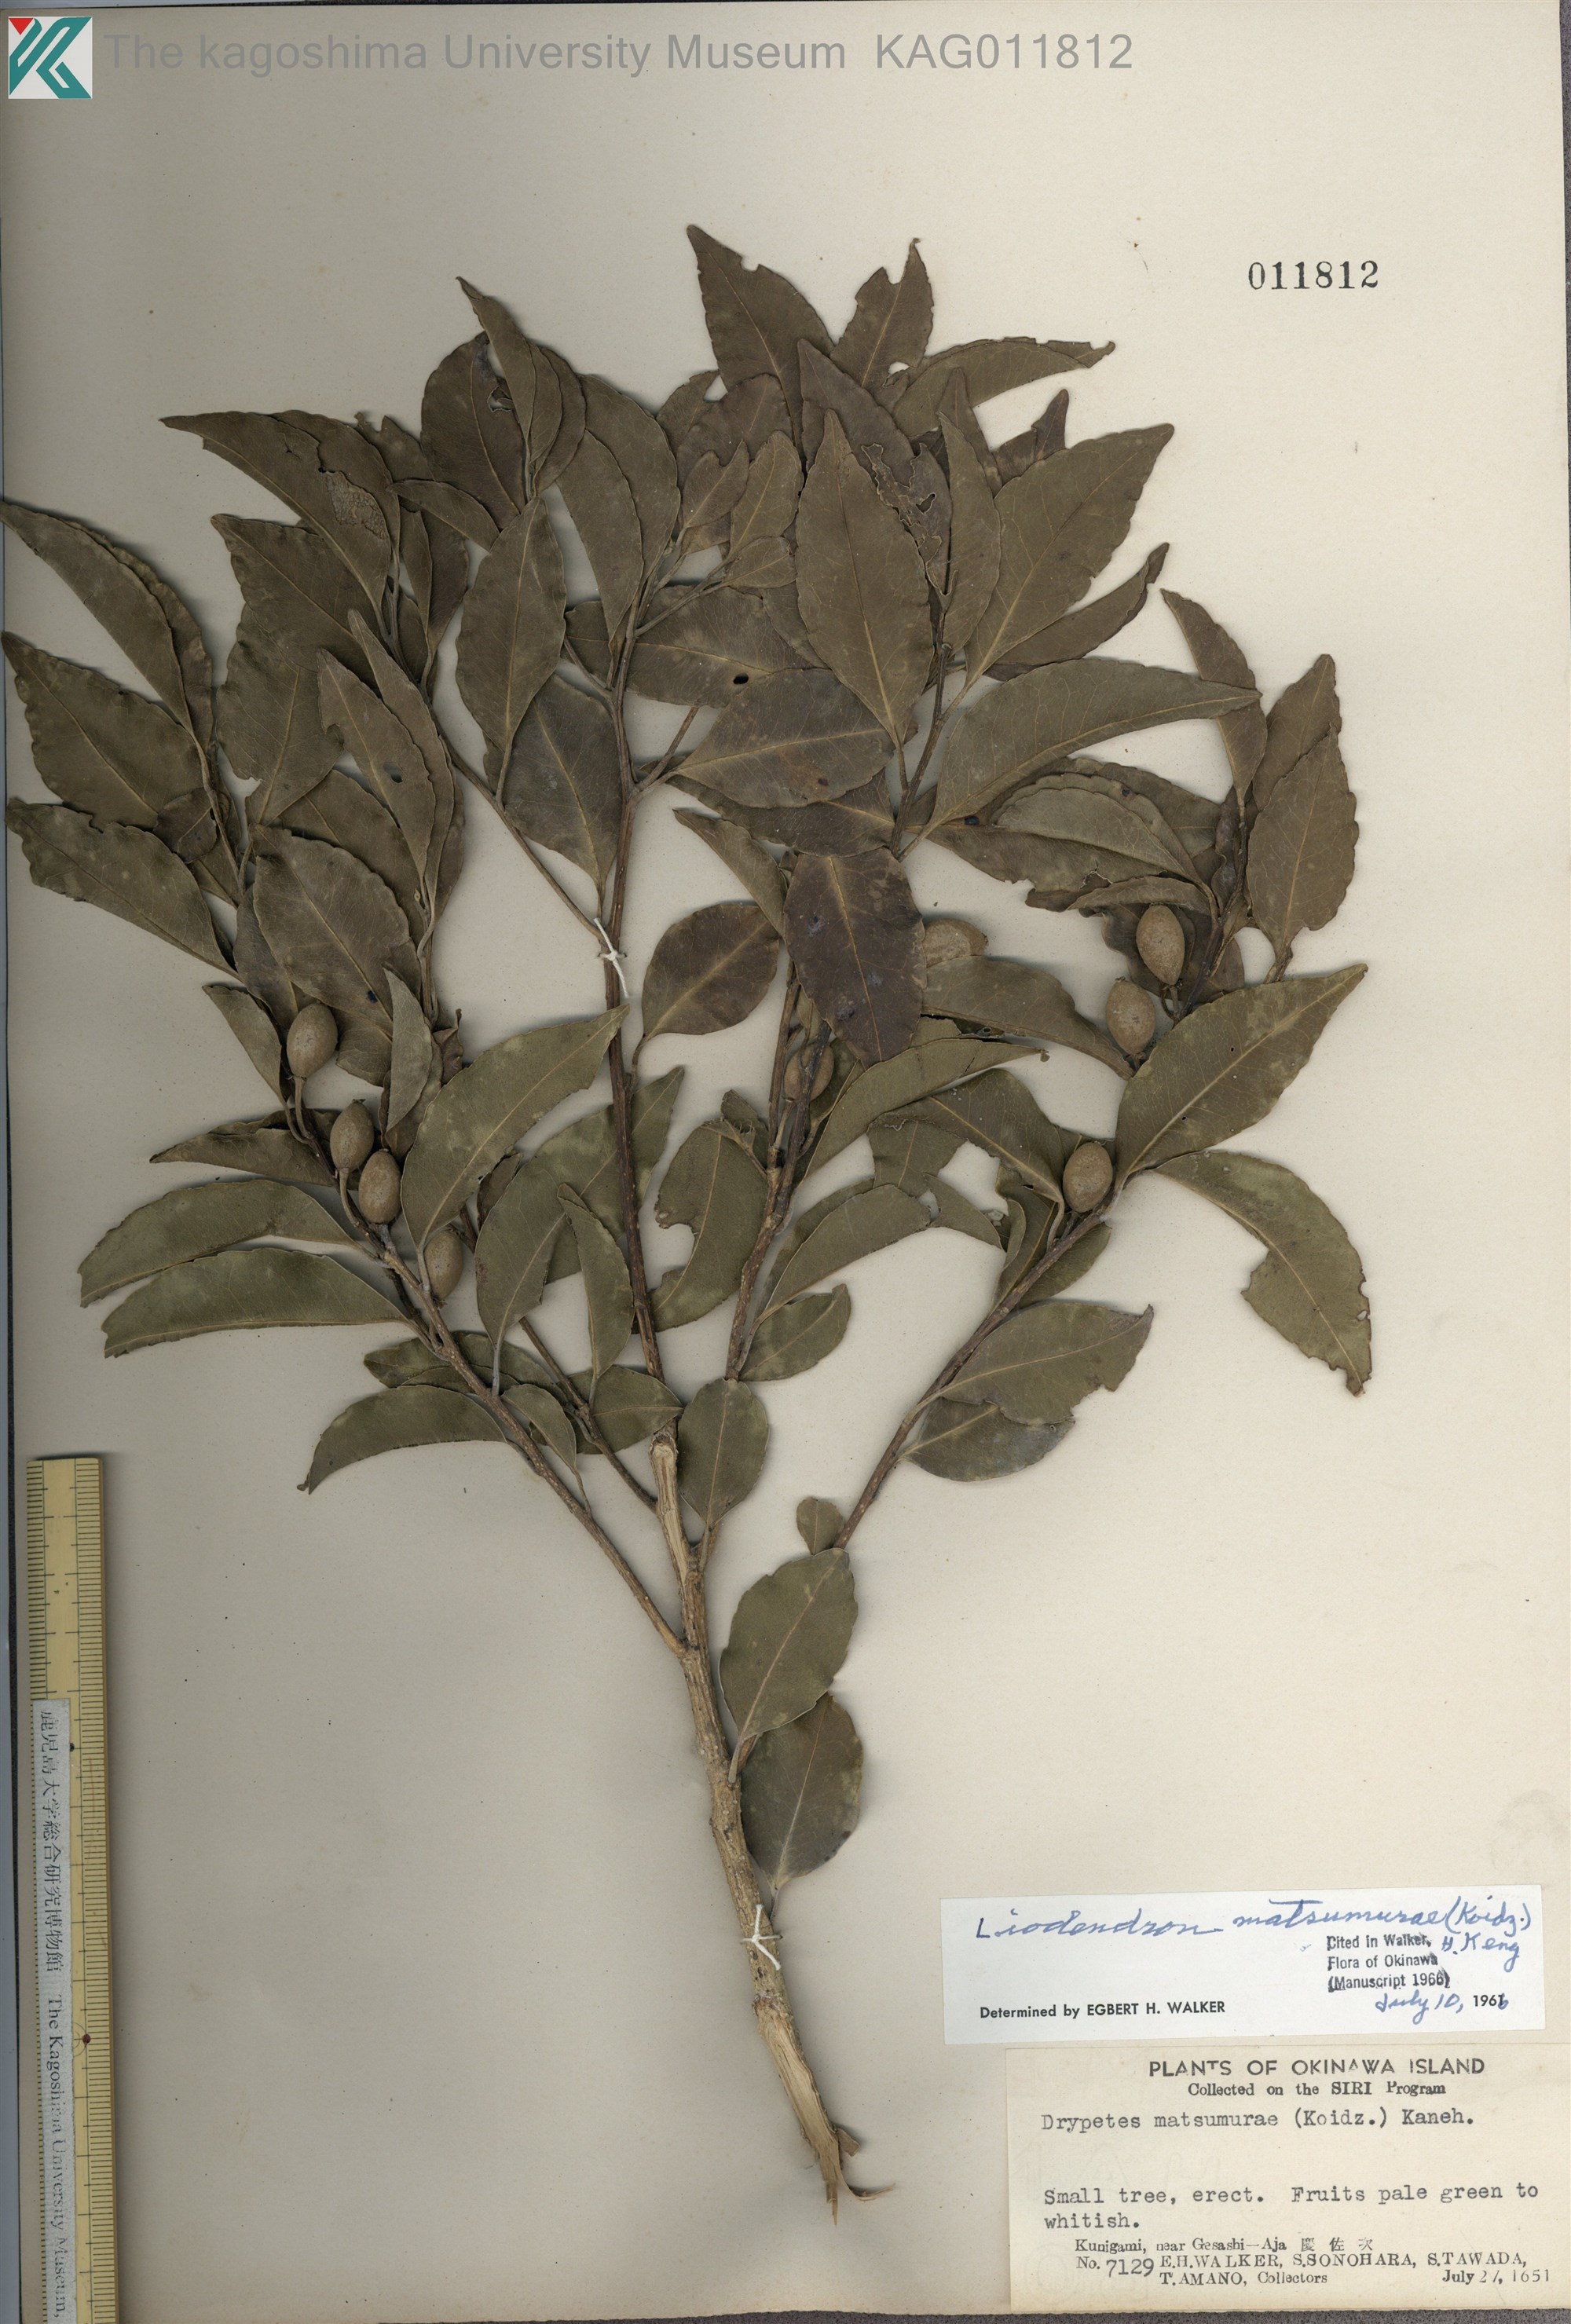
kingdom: Plantae
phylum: Tracheophyta
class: Magnoliopsida
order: Malpighiales
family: Putranjivaceae
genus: Putranjiva
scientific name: Putranjiva matsumurae
